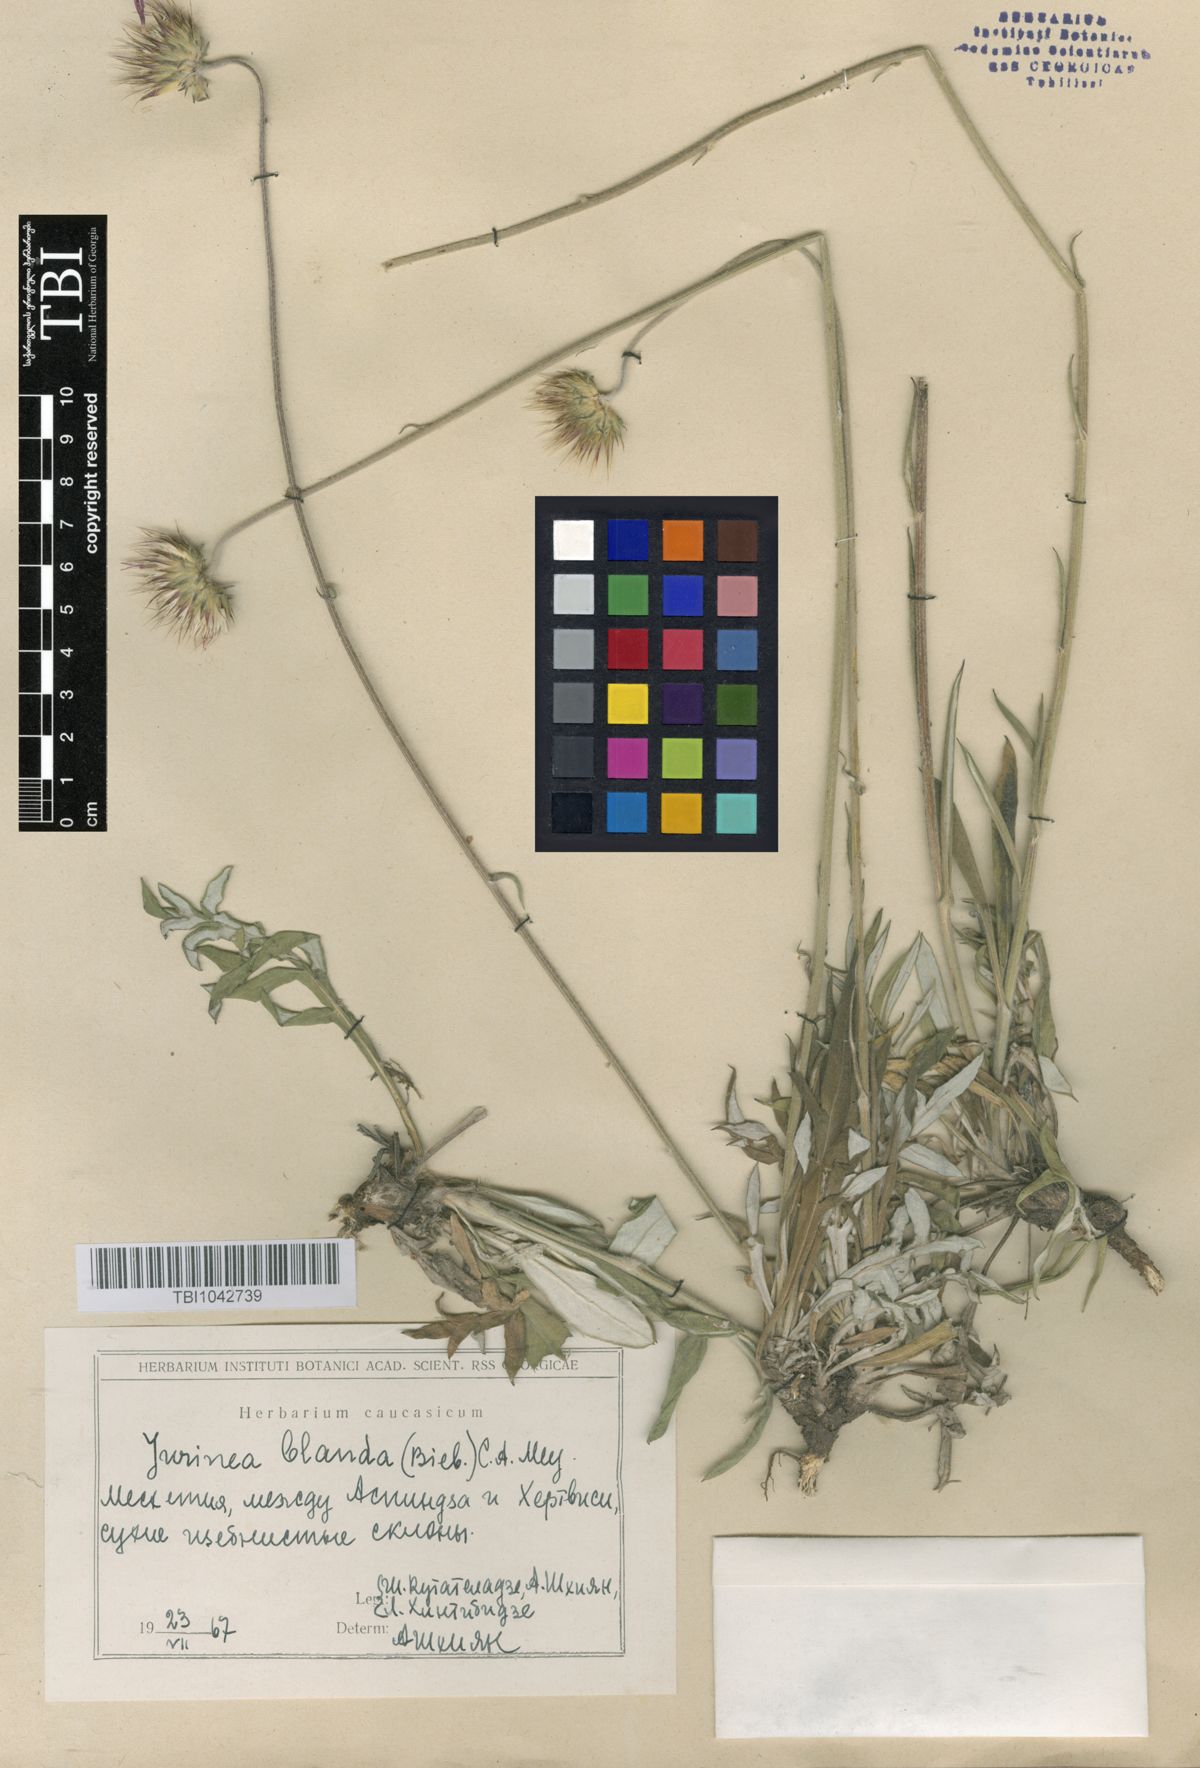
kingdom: Plantae
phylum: Tracheophyta
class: Magnoliopsida
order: Asterales
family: Asteraceae
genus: Jurinea
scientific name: Jurinea blanda
